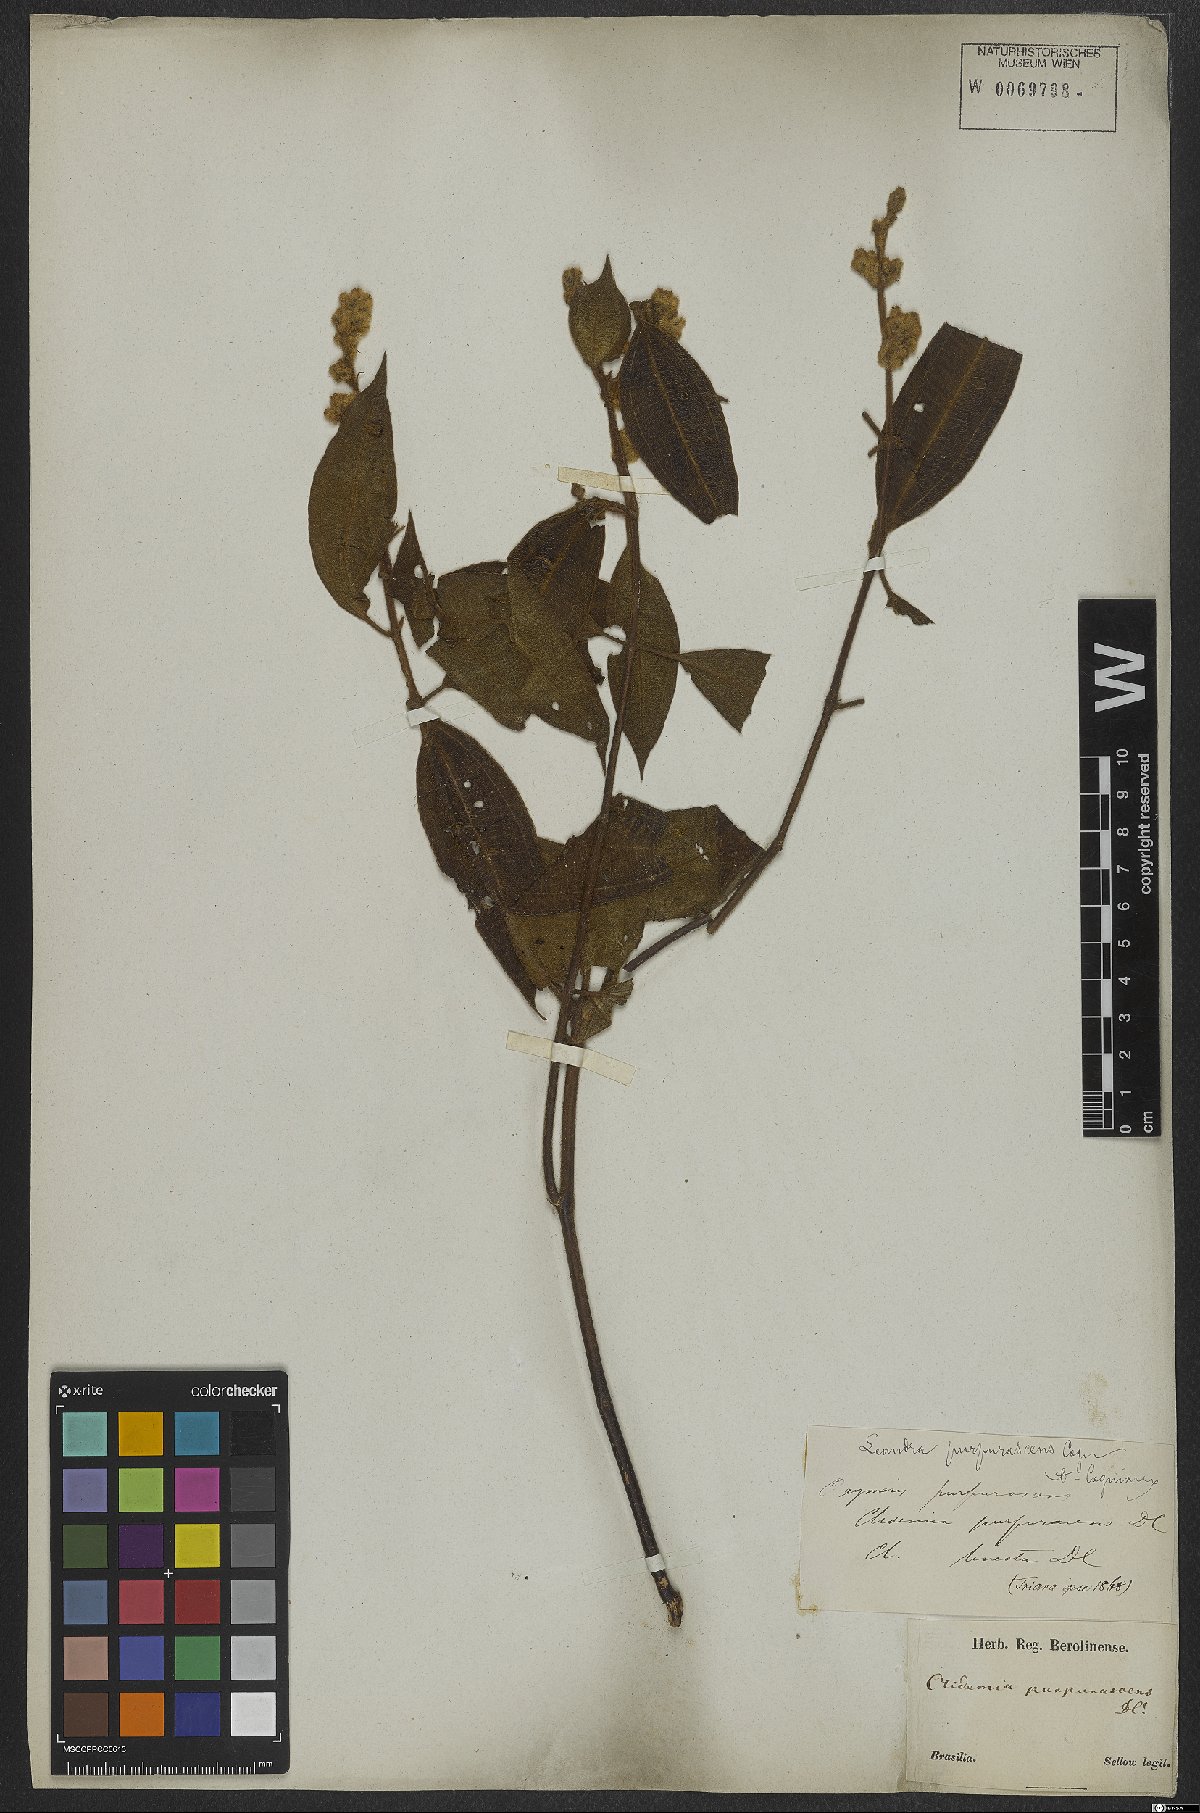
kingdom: Plantae
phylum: Tracheophyta
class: Magnoliopsida
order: Myrtales
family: Melastomataceae
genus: Miconia
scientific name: Miconia microstachya
